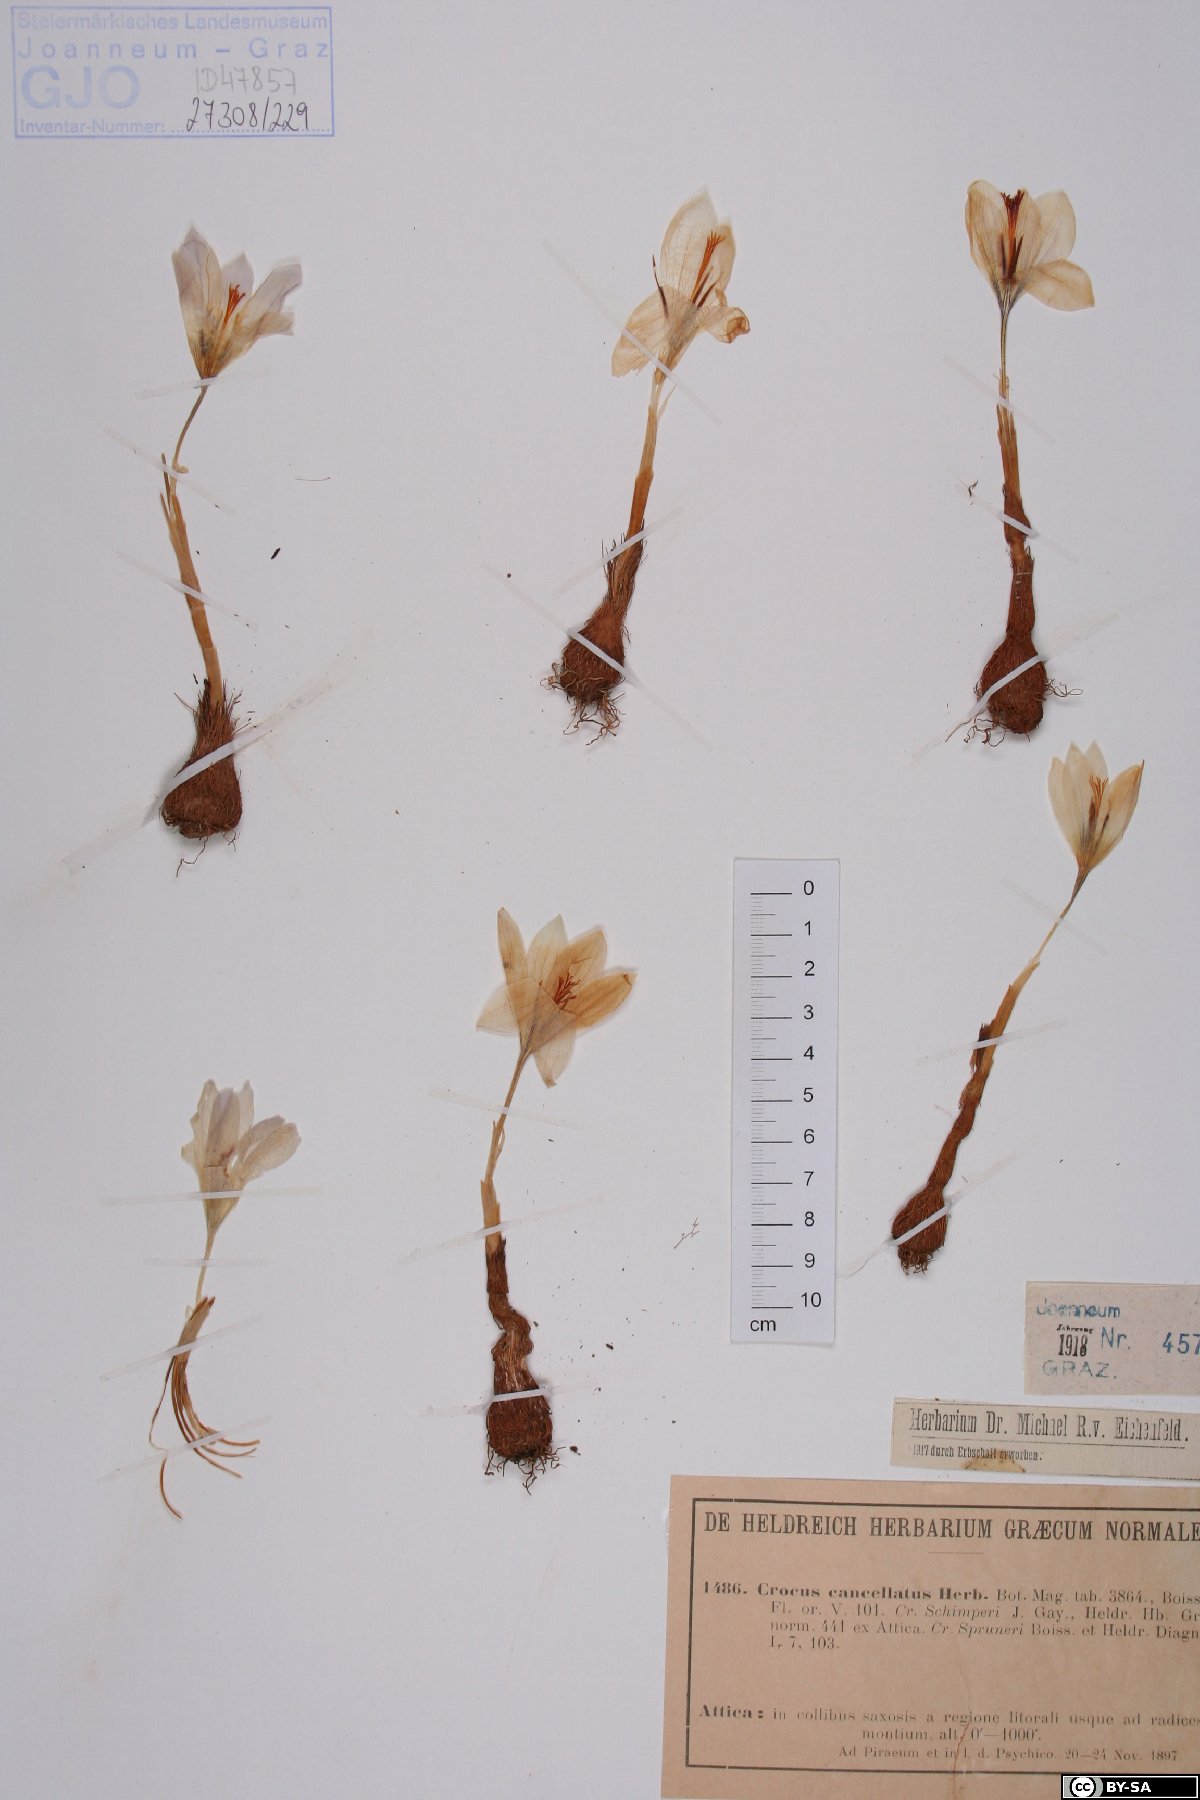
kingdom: Plantae
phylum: Tracheophyta
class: Liliopsida
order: Asparagales
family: Iridaceae
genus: Crocus
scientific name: Crocus cancellatus
